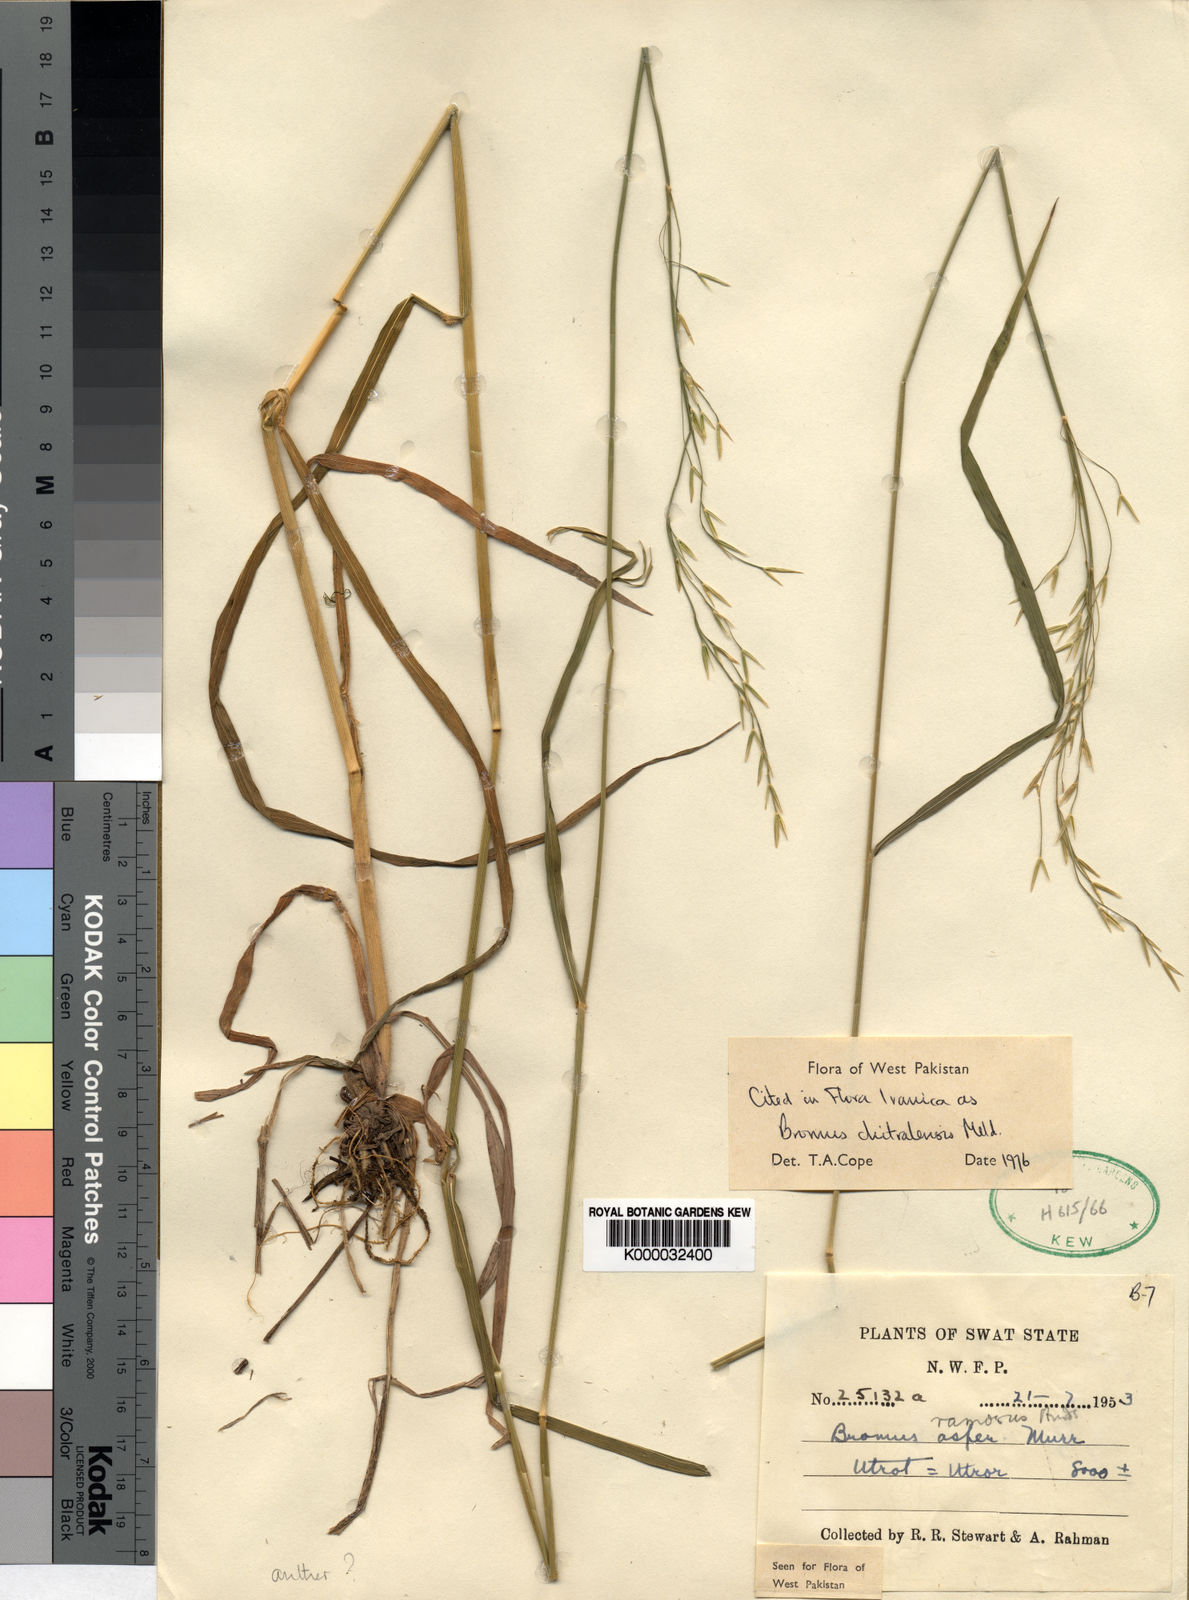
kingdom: Plantae
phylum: Tracheophyta
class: Liliopsida
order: Poales
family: Poaceae
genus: Bromus
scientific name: Bromus ramosus
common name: Hairy brome
